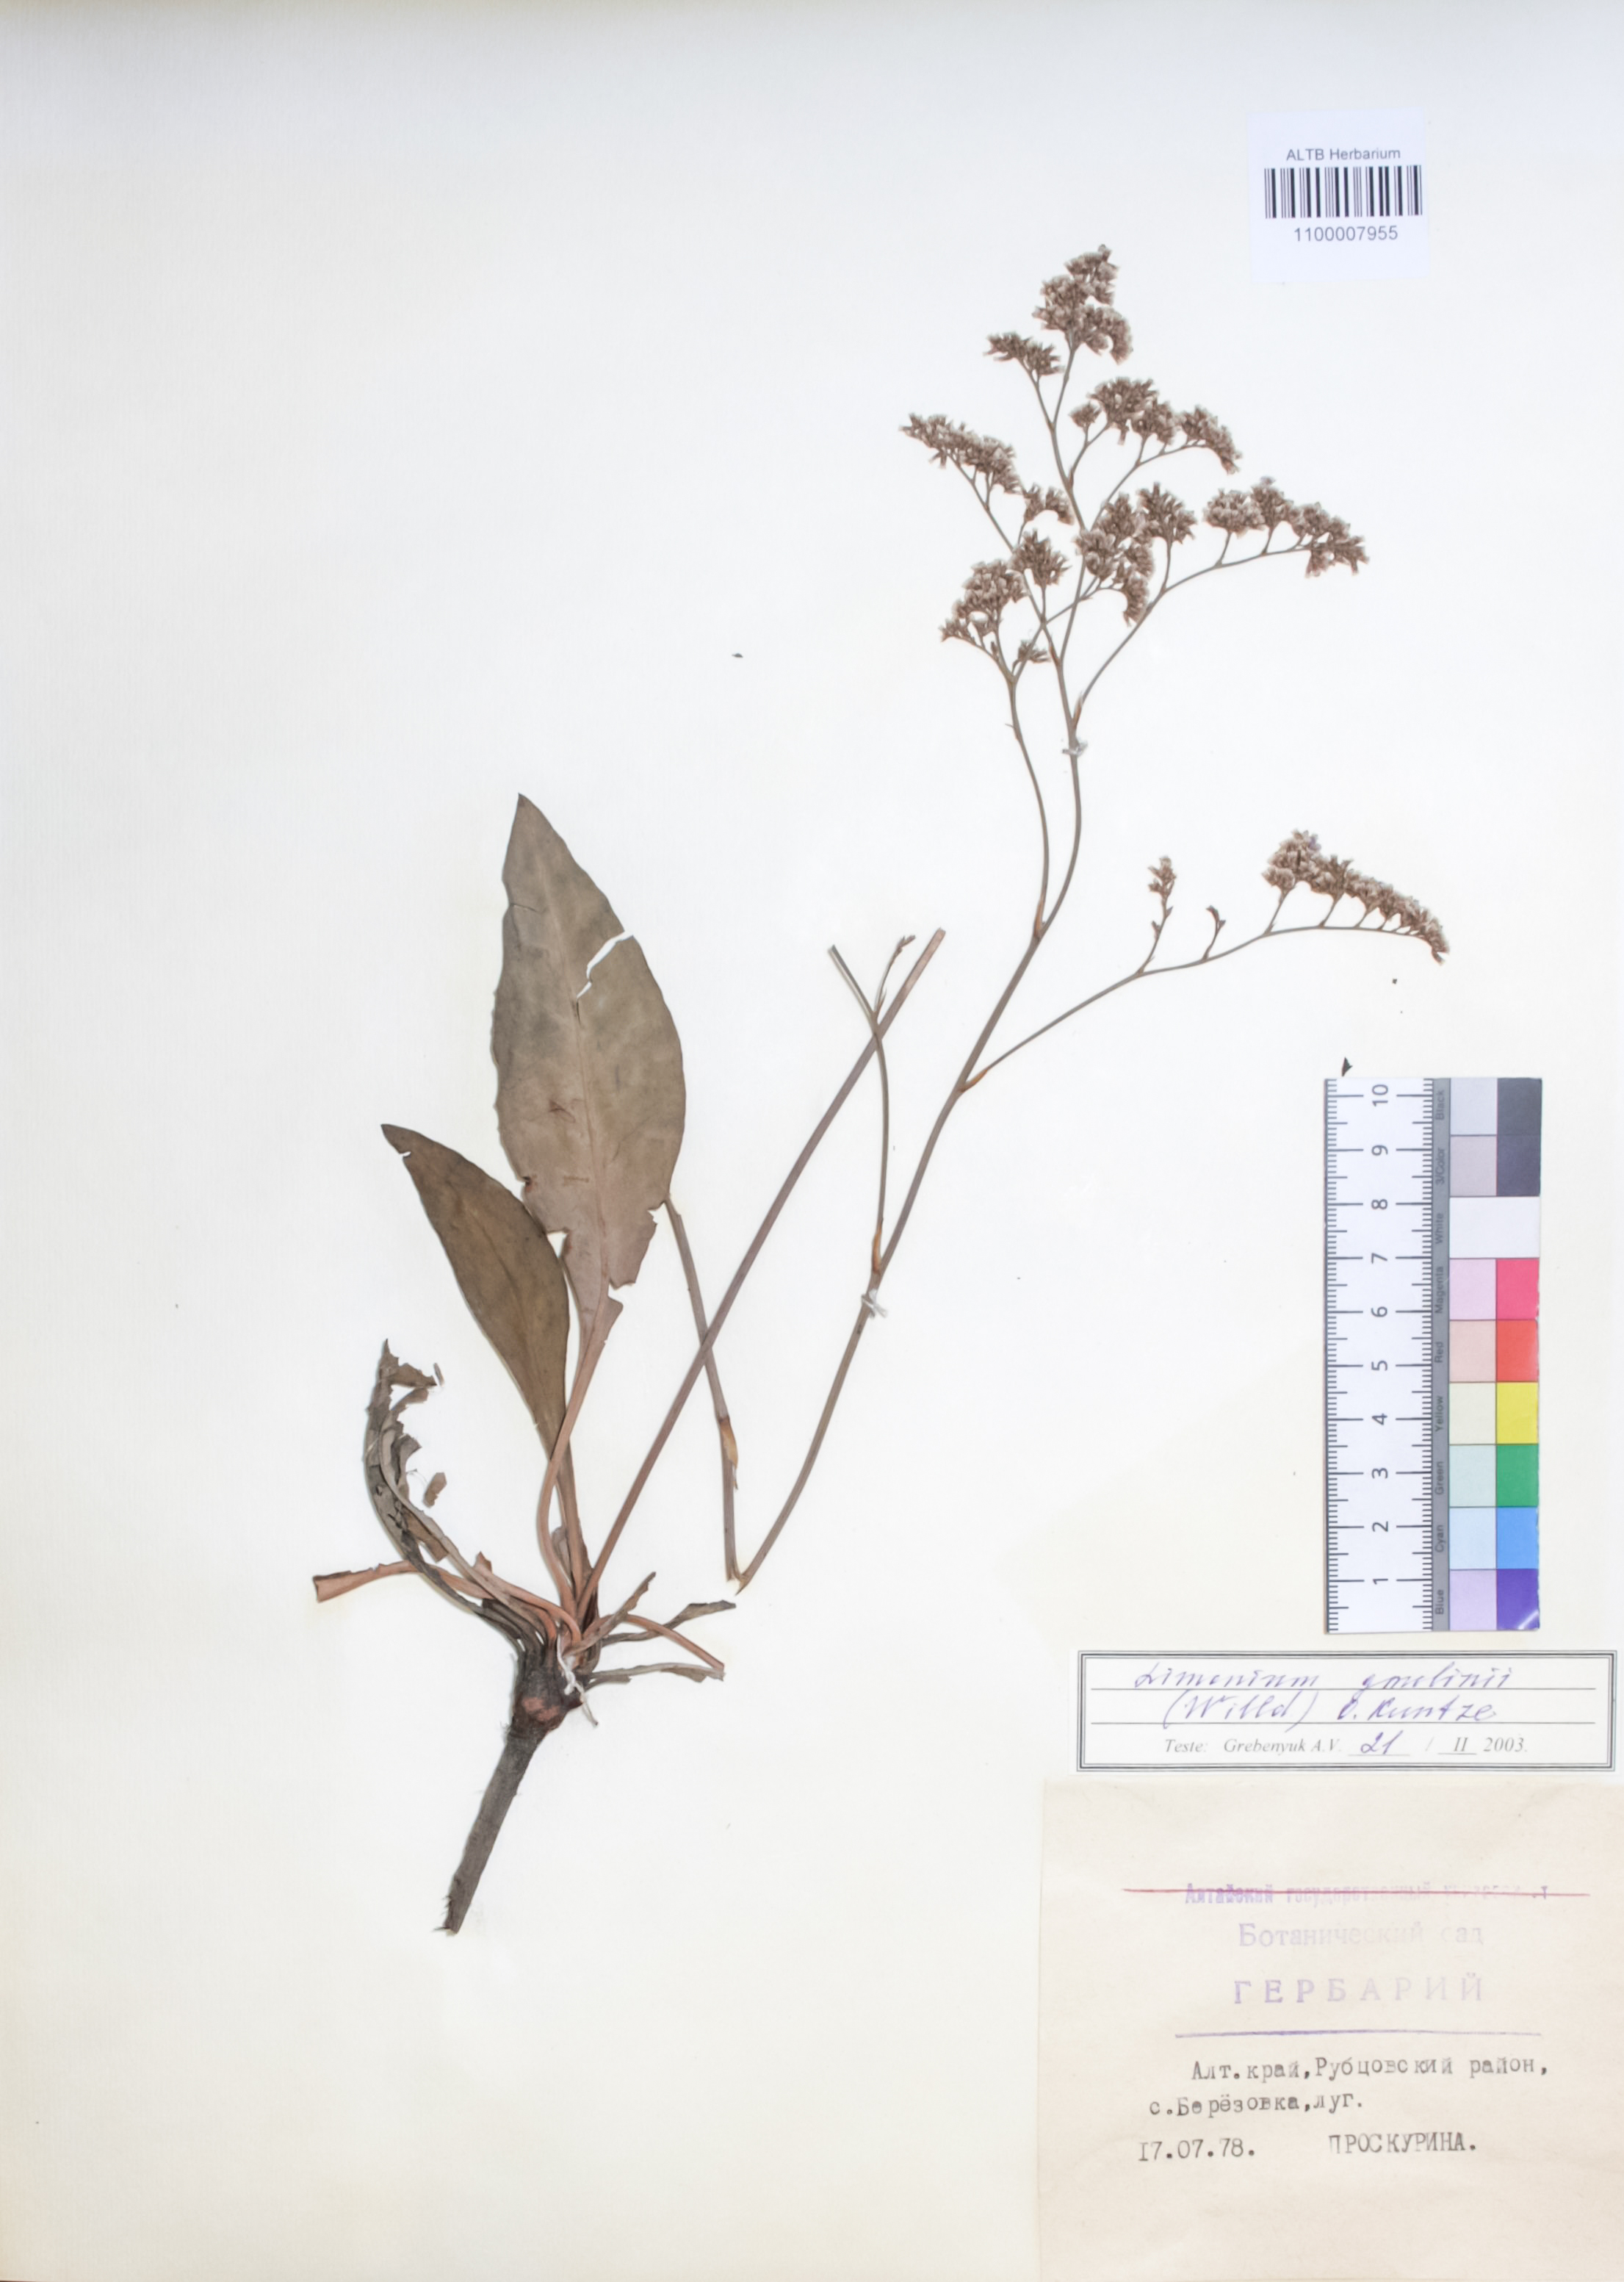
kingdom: Plantae
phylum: Tracheophyta
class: Magnoliopsida
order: Caryophyllales
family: Plumbaginaceae
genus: Limonium
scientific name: Limonium gmelini
